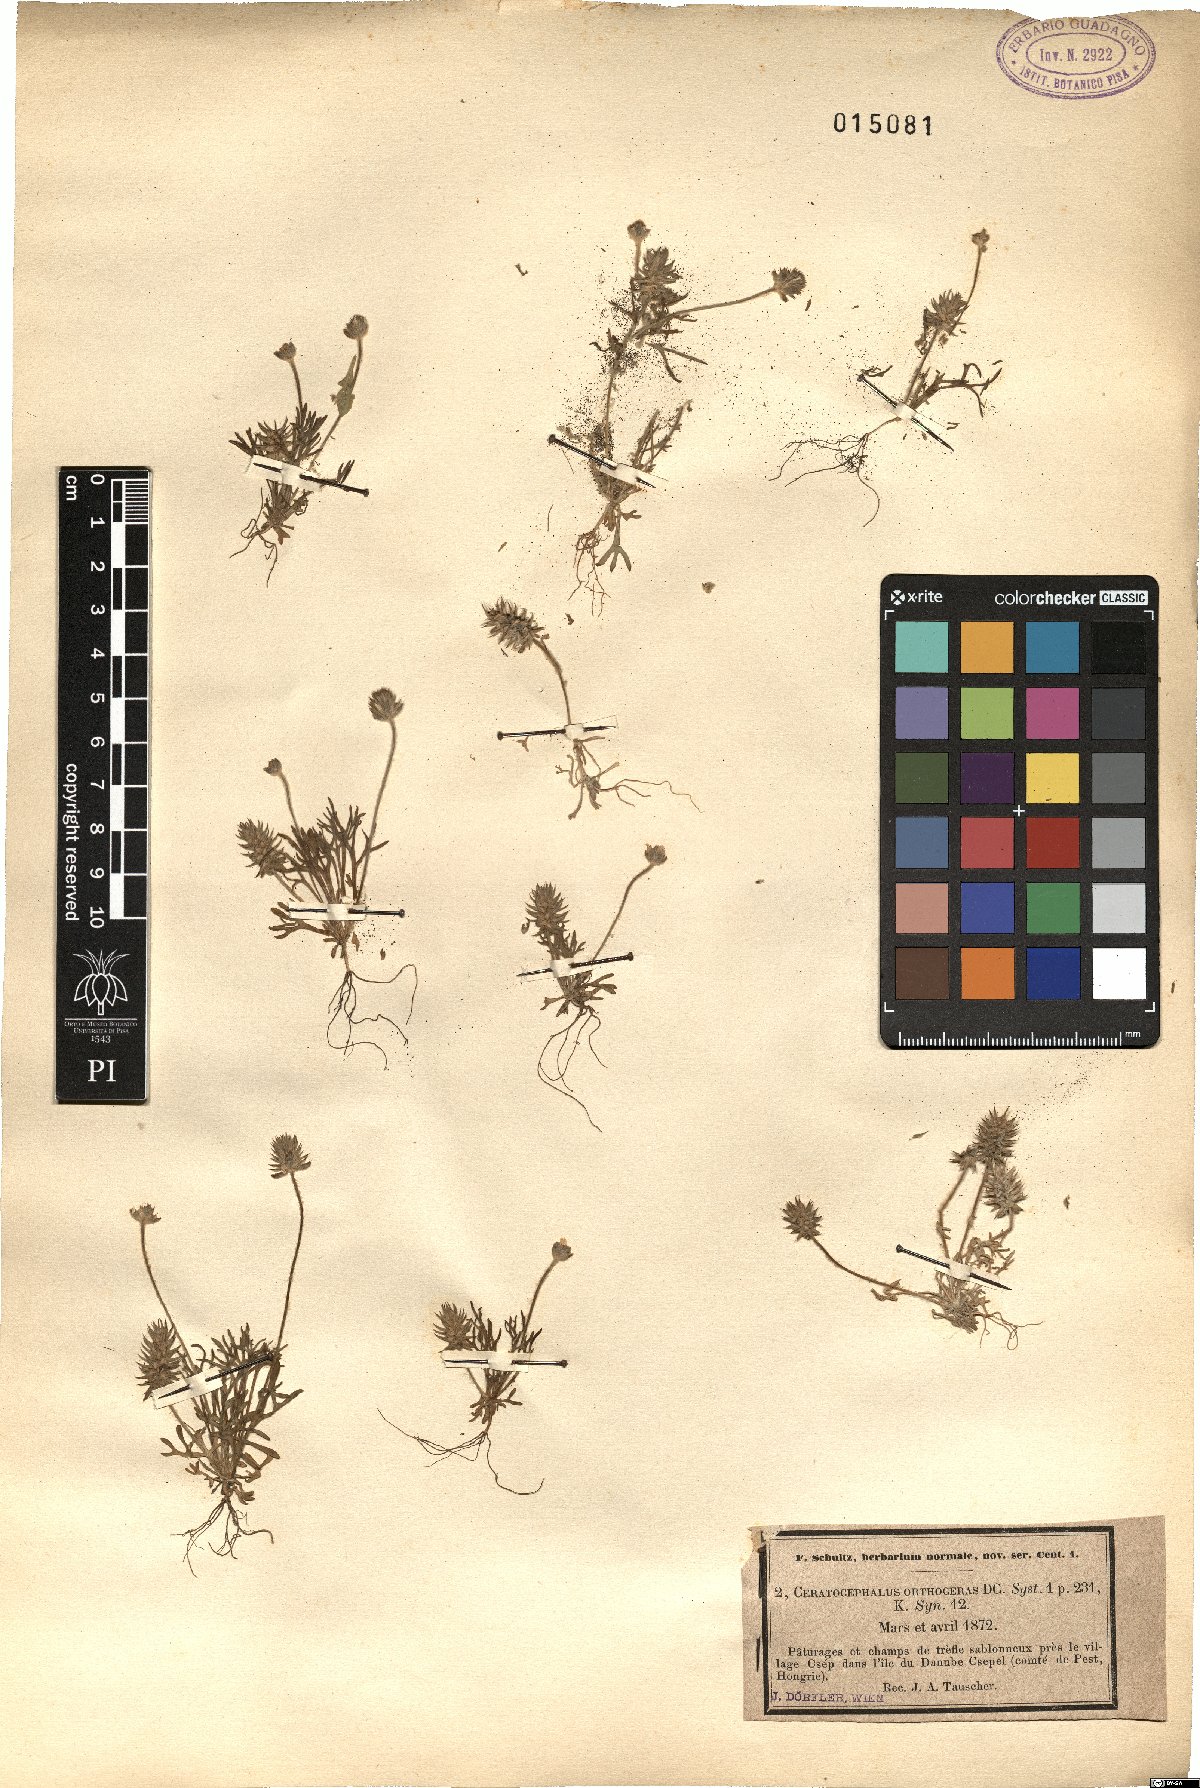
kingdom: Plantae
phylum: Tracheophyta
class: Magnoliopsida
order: Ranunculales
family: Ranunculaceae
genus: Ceratocephala
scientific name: Ceratocephala orthoceras
